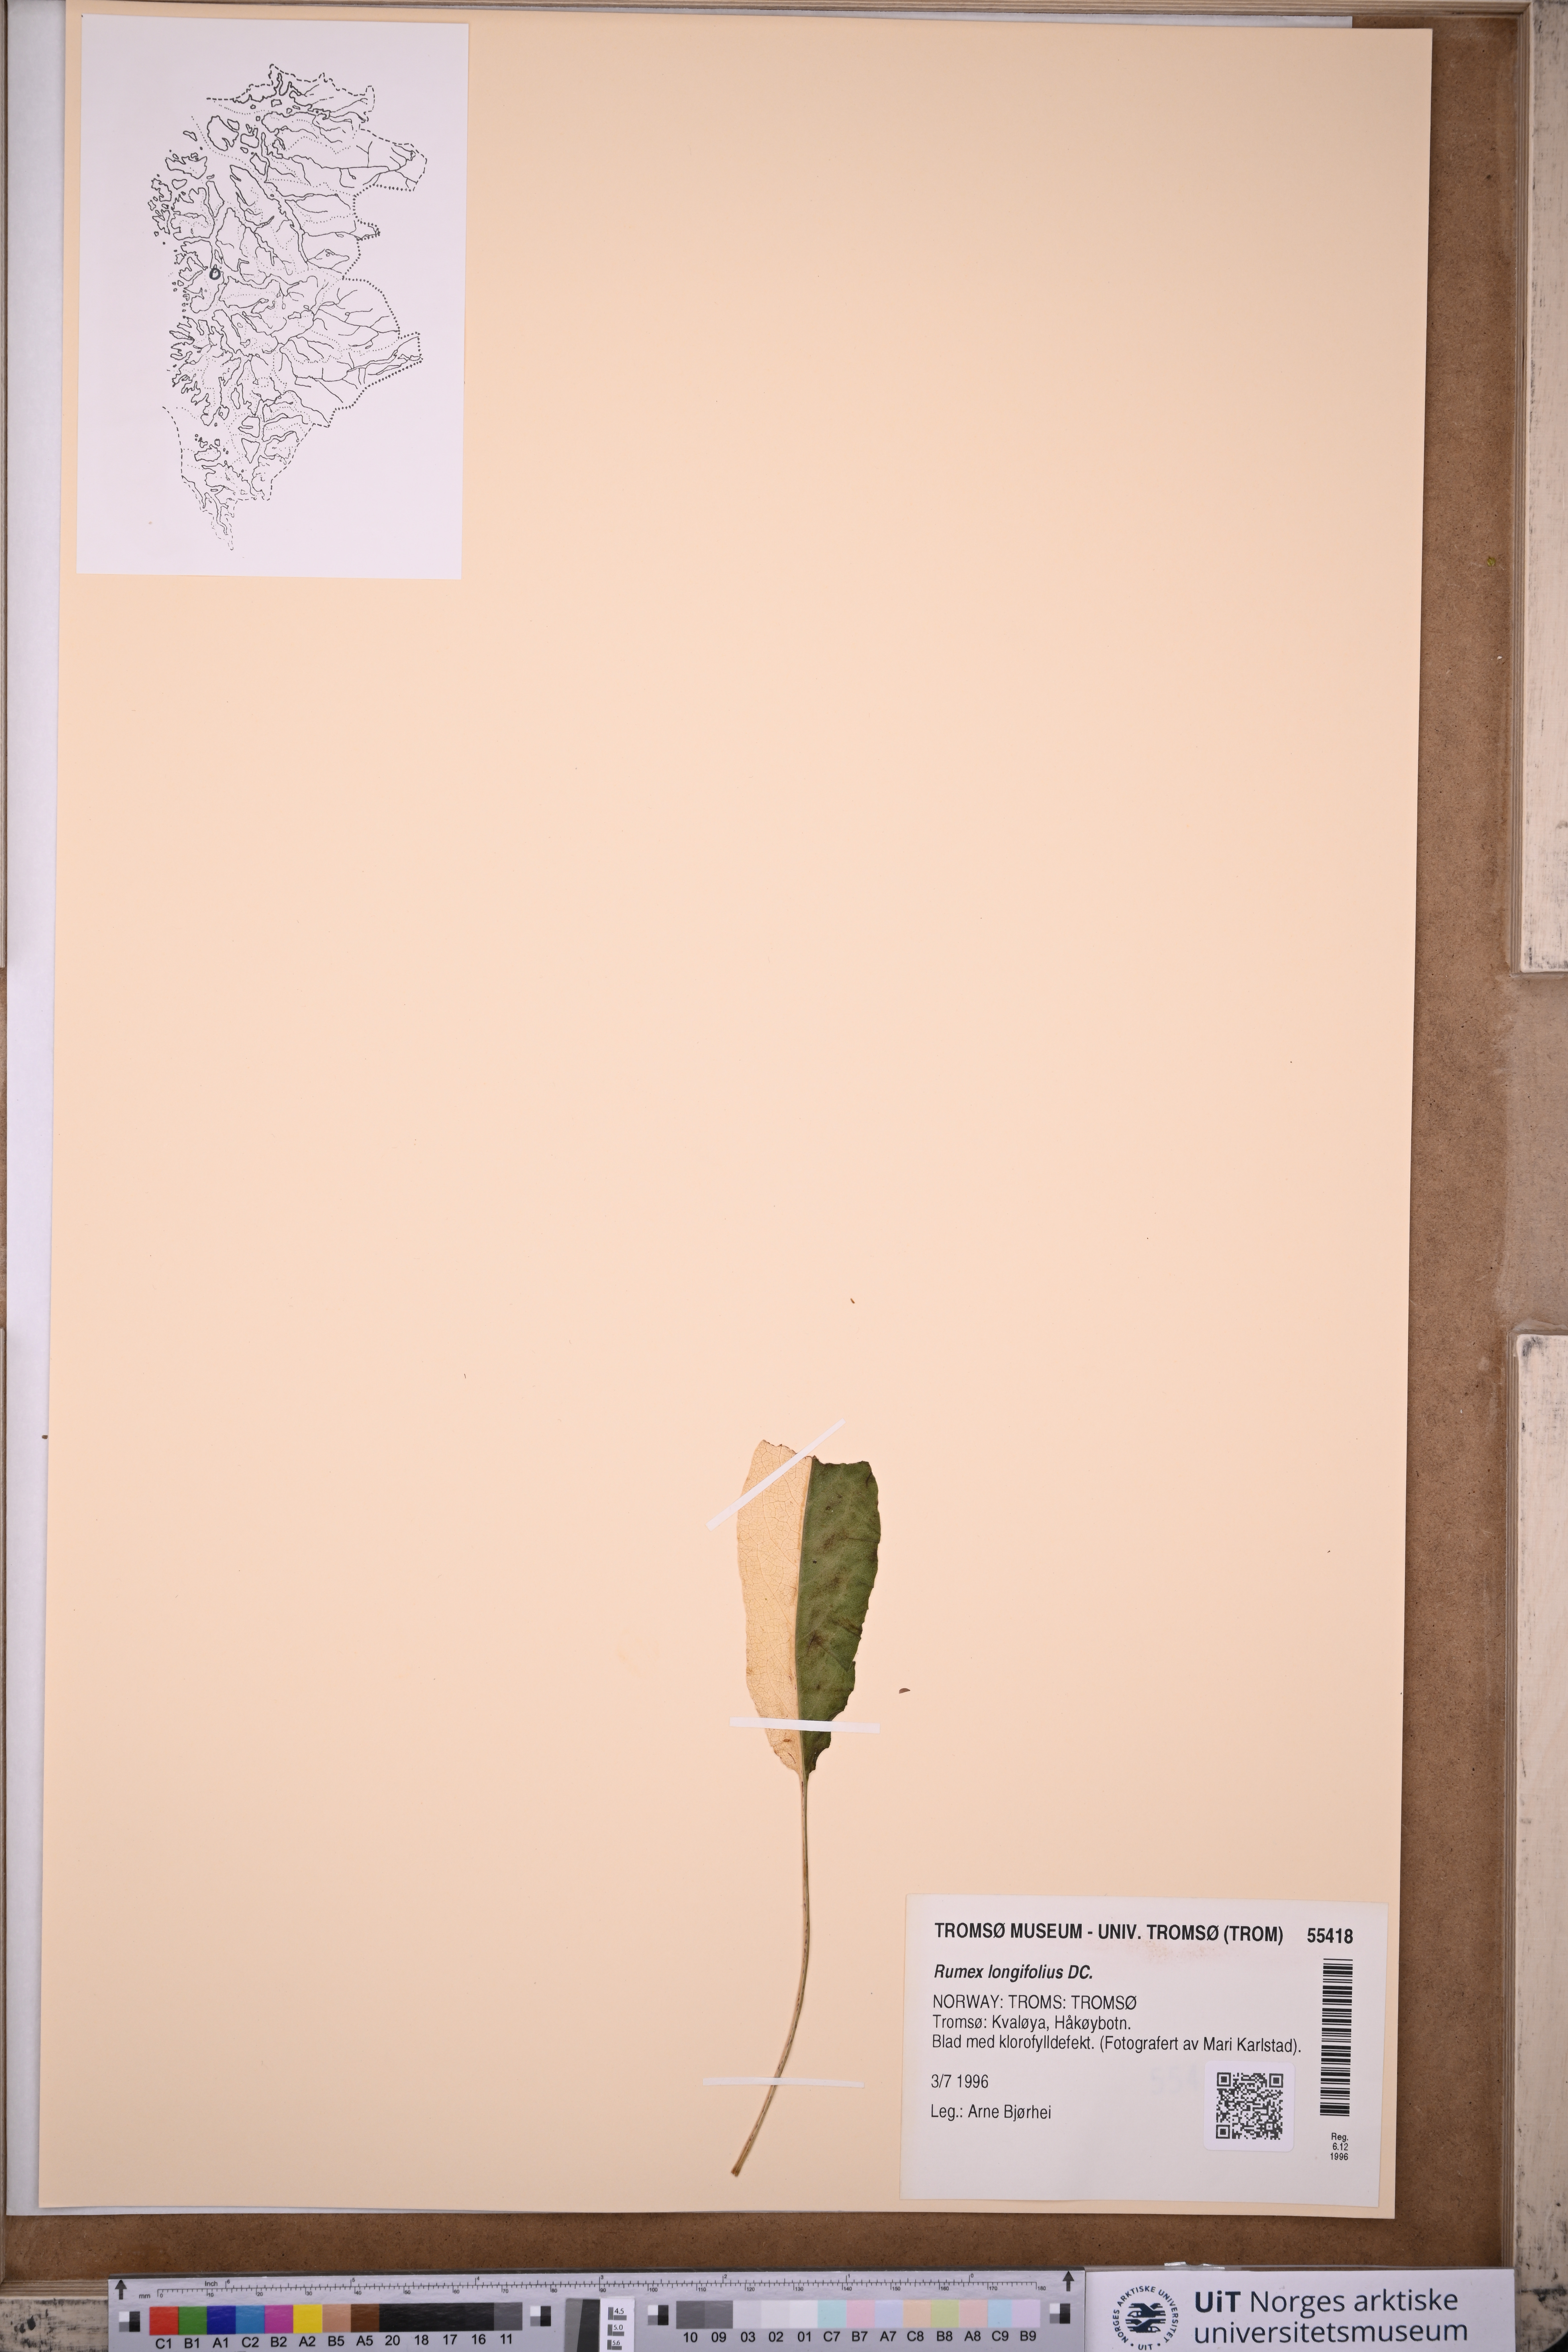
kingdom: Plantae
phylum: Tracheophyta
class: Magnoliopsida
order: Caryophyllales
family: Polygonaceae
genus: Rumex
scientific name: Rumex longifolius
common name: Dooryard dock
